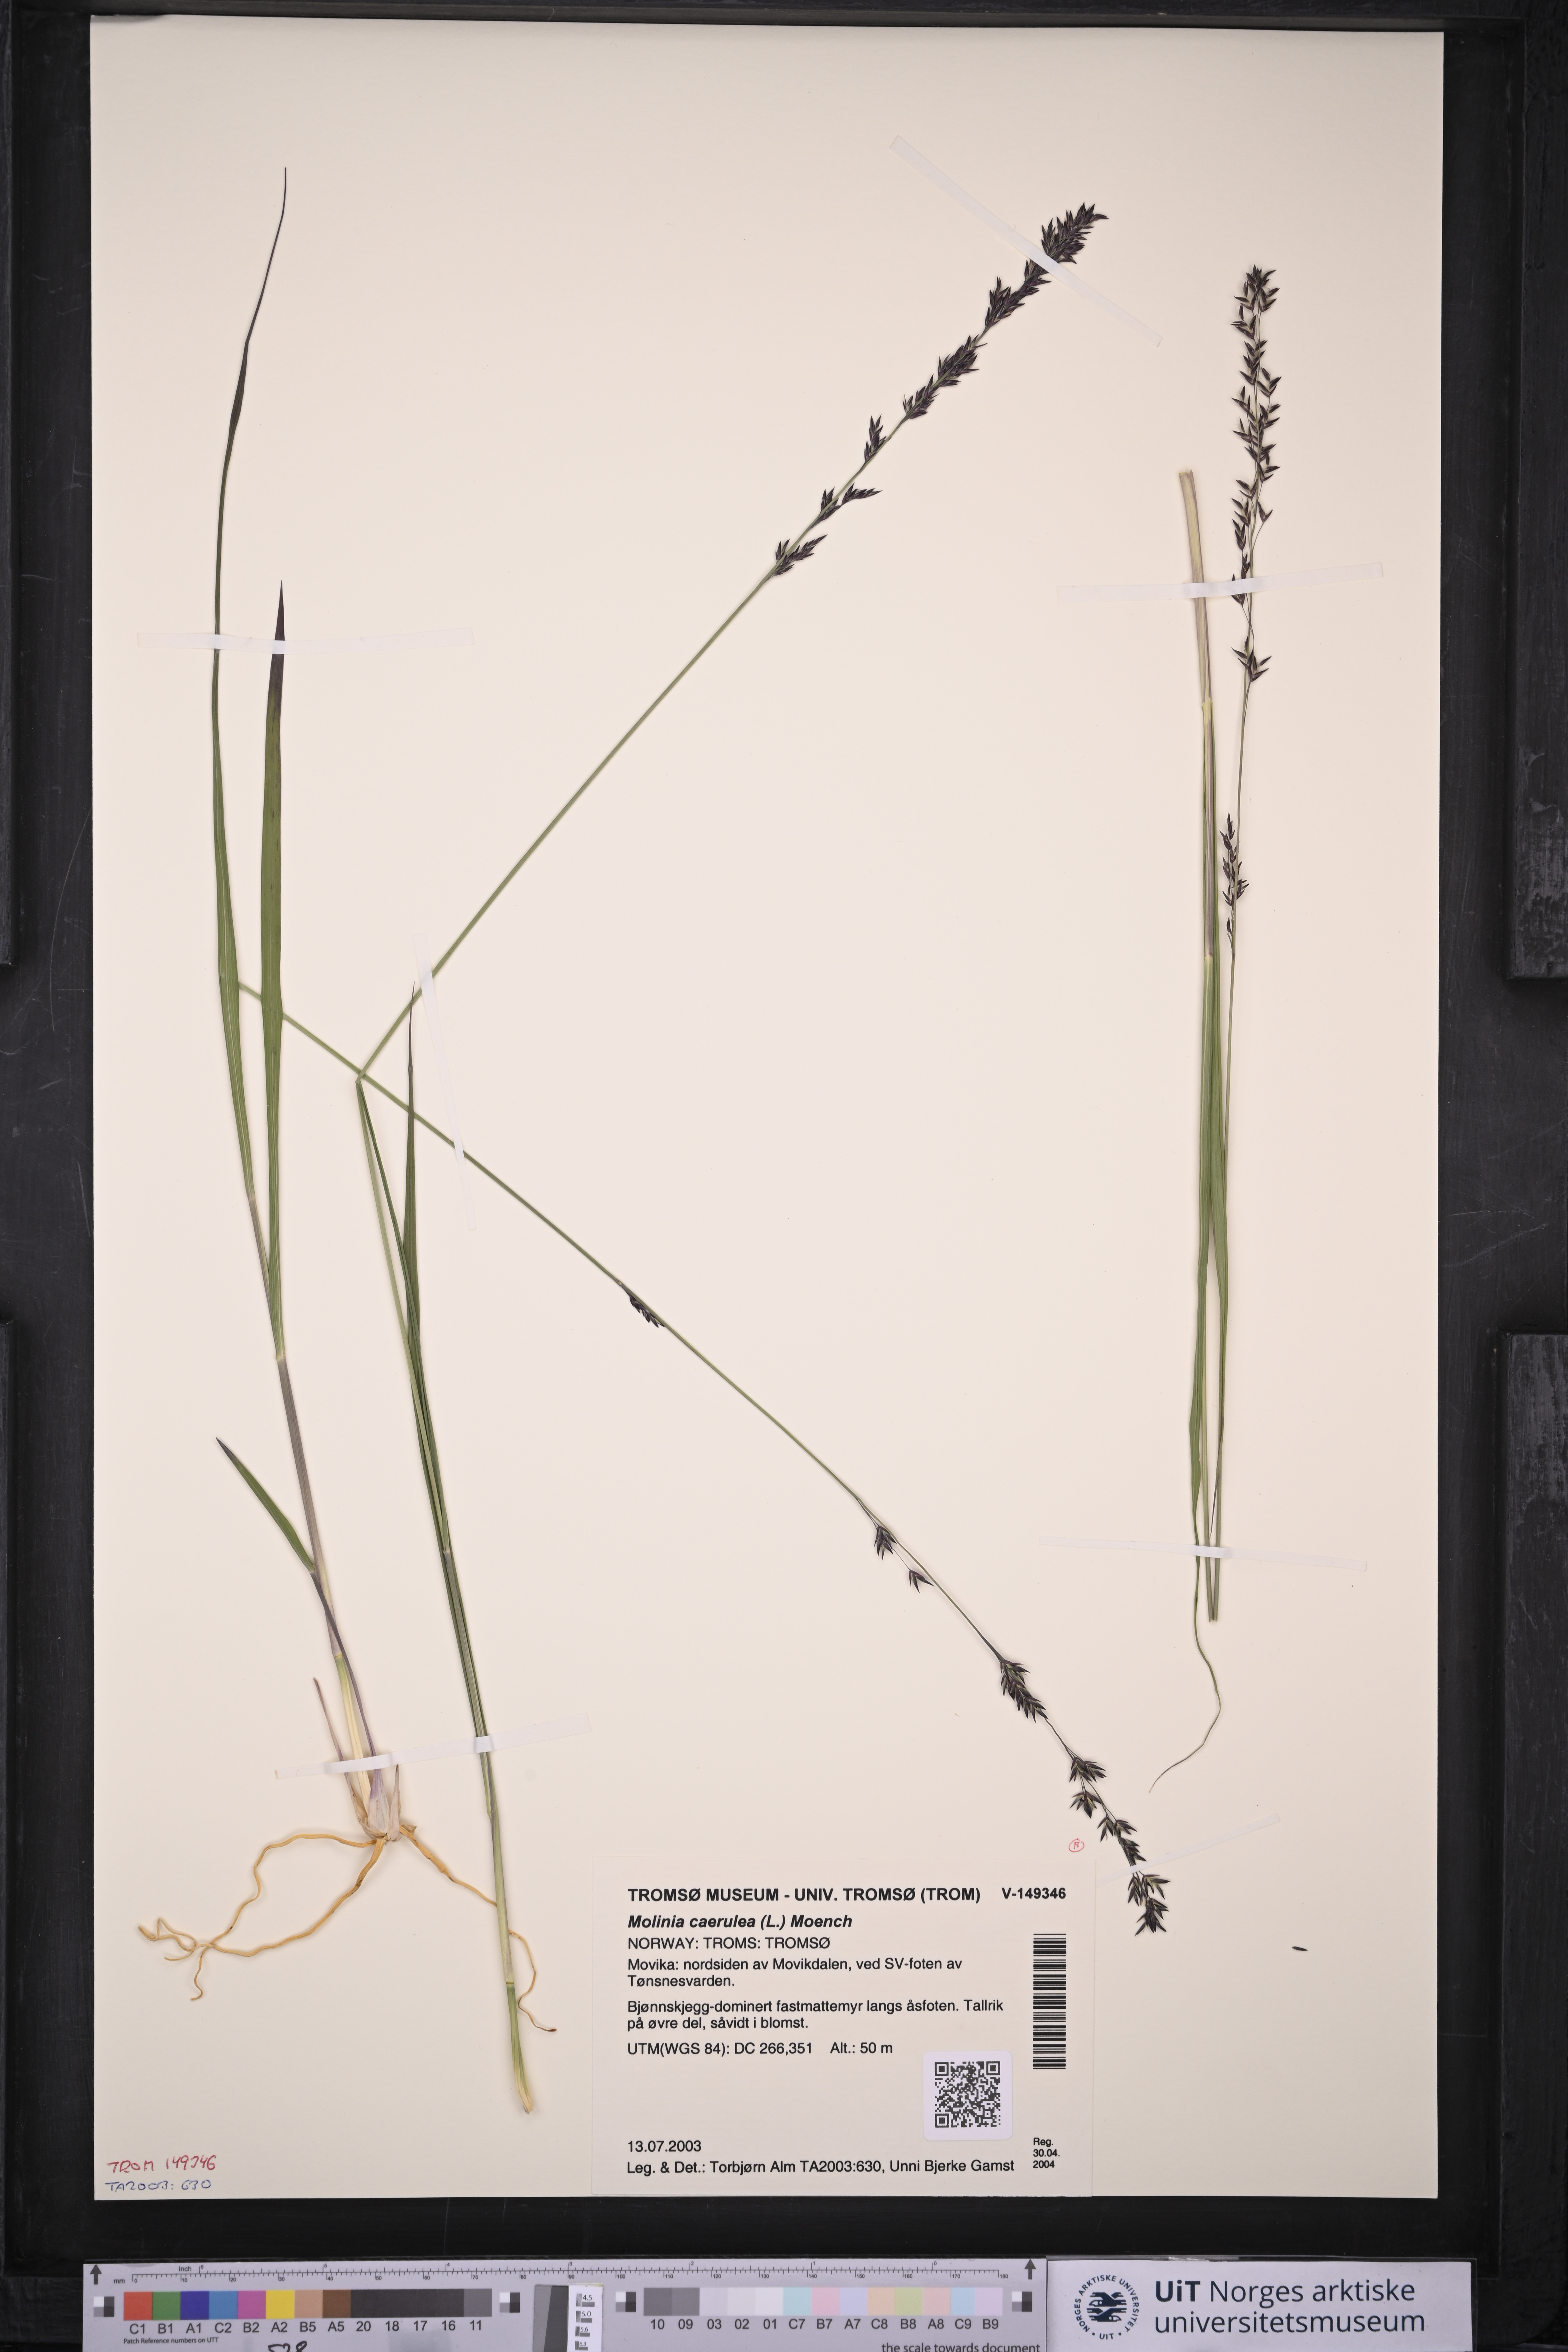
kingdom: Plantae
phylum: Tracheophyta
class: Liliopsida
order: Poales
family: Poaceae
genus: Molinia
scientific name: Molinia caerulea
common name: Purple moor-grass
